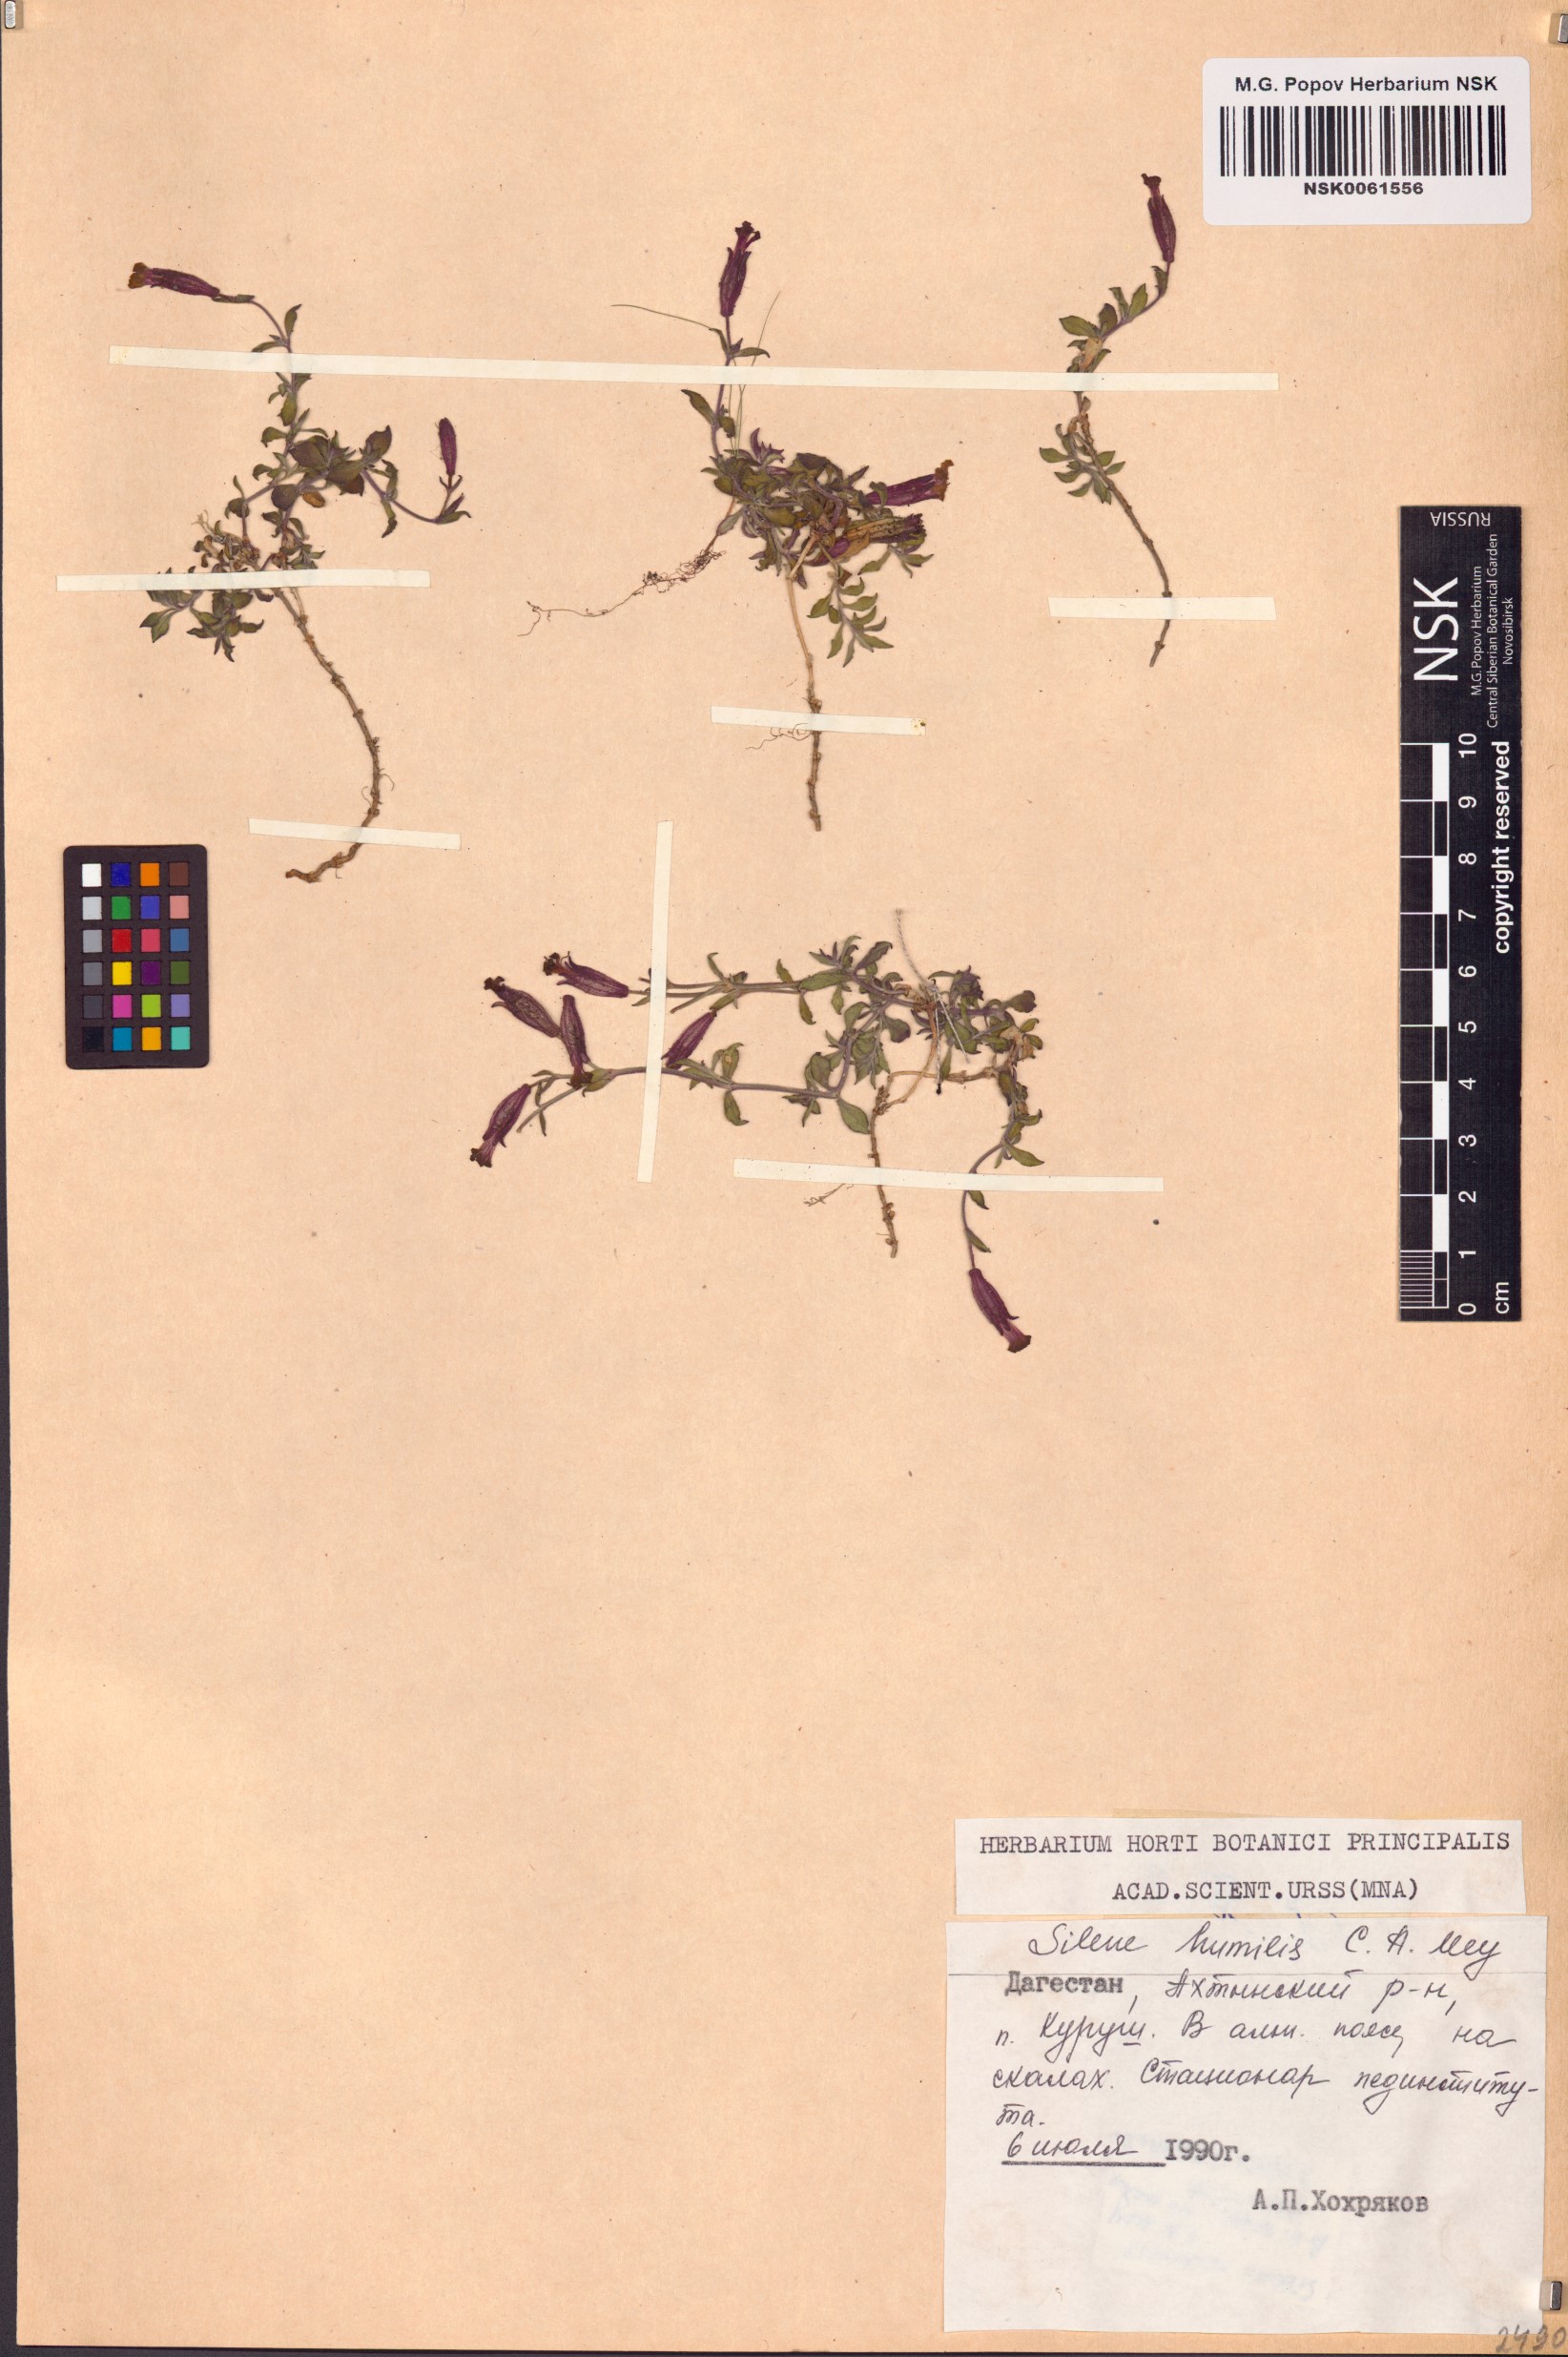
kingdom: Plantae
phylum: Tracheophyta
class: Magnoliopsida
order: Caryophyllales
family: Caryophyllaceae
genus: Silene
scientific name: Silene humilis
